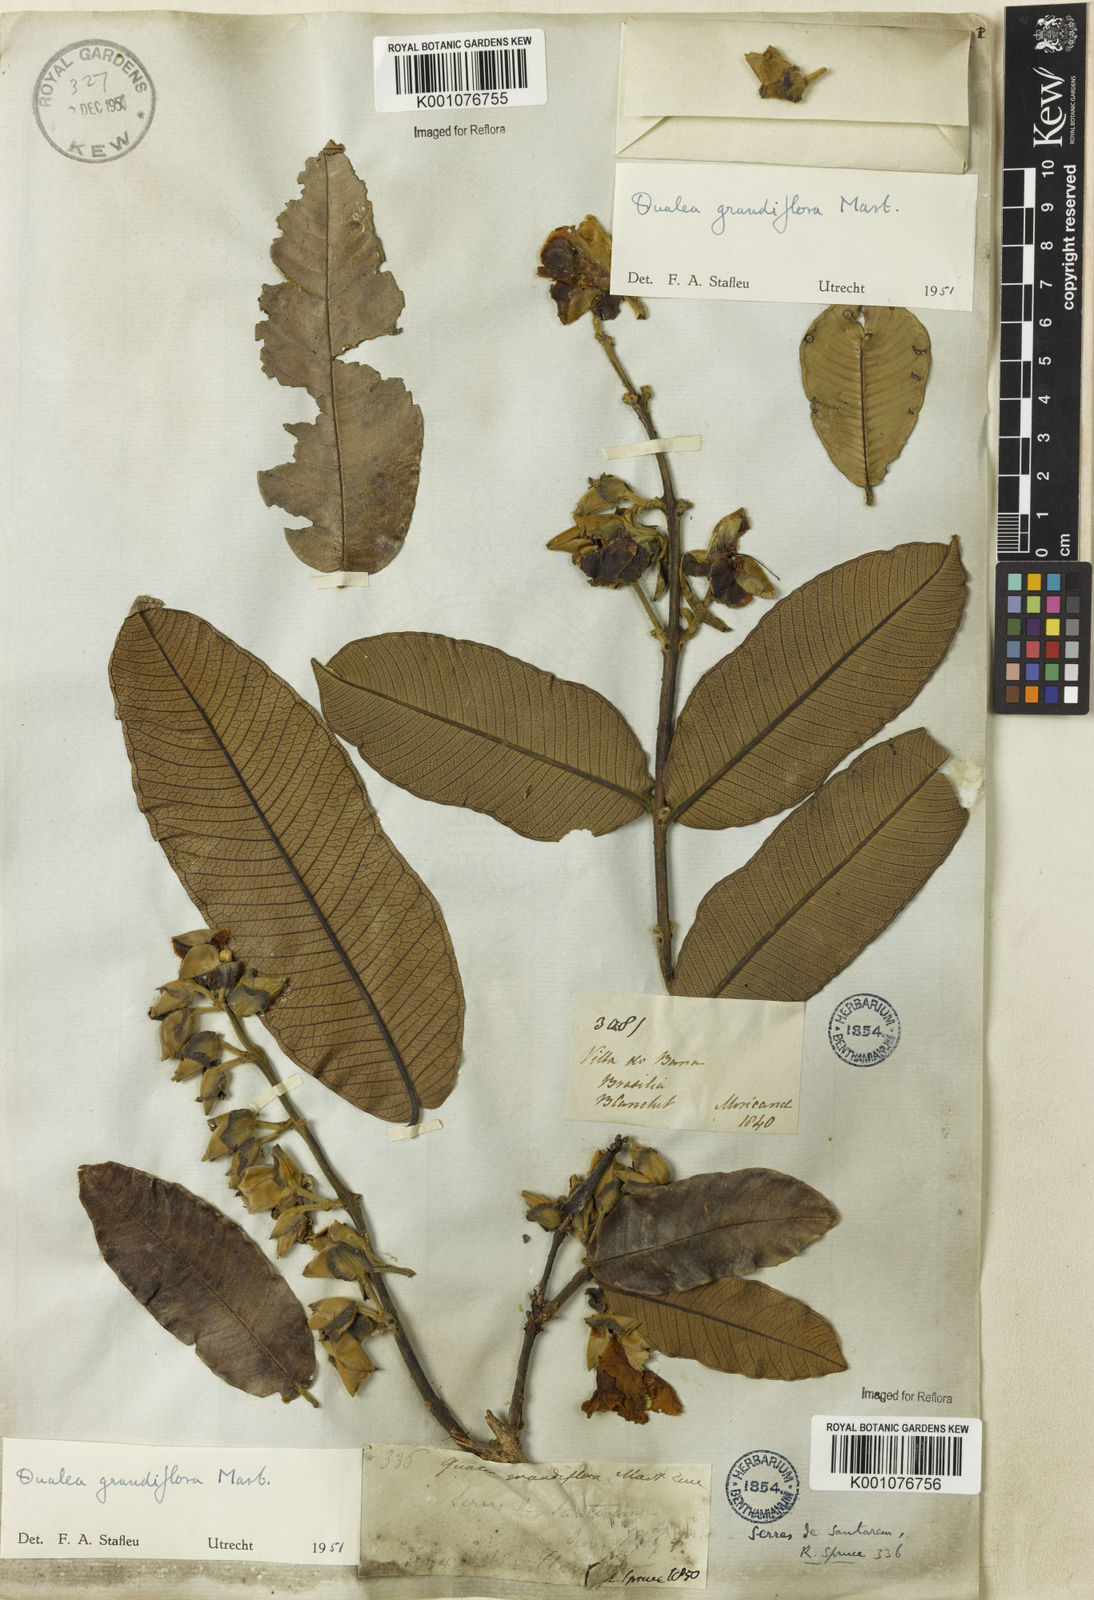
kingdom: Plantae
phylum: Tracheophyta
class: Magnoliopsida
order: Myrtales
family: Vochysiaceae
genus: Qualea
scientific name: Qualea grandiflora
